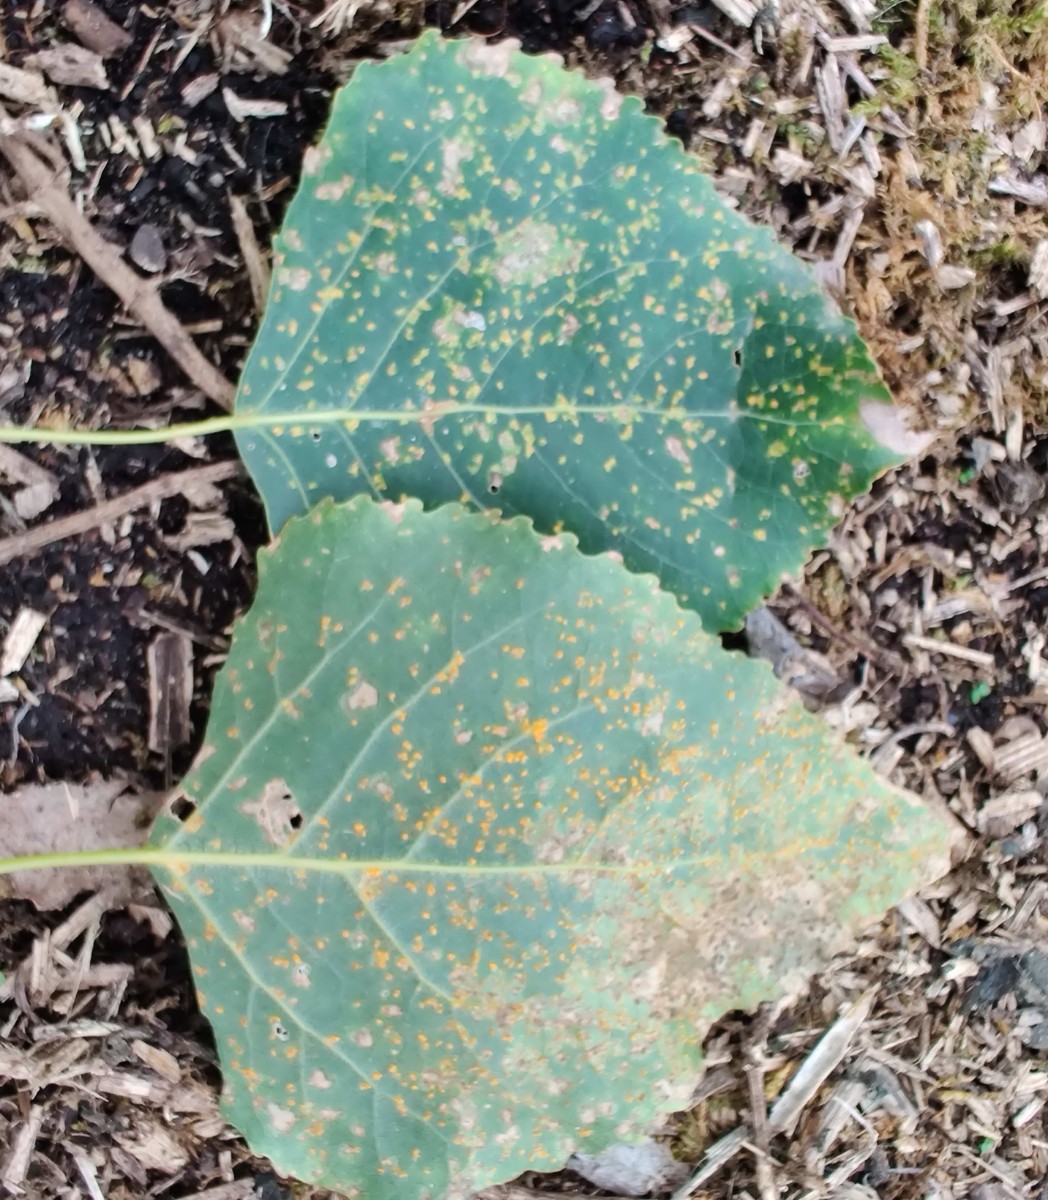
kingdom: Fungi
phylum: Basidiomycota
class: Pucciniomycetes
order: Pucciniales
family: Melampsoraceae
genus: Melampsora
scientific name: Melampsora populnea
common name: poppel-skorperust
